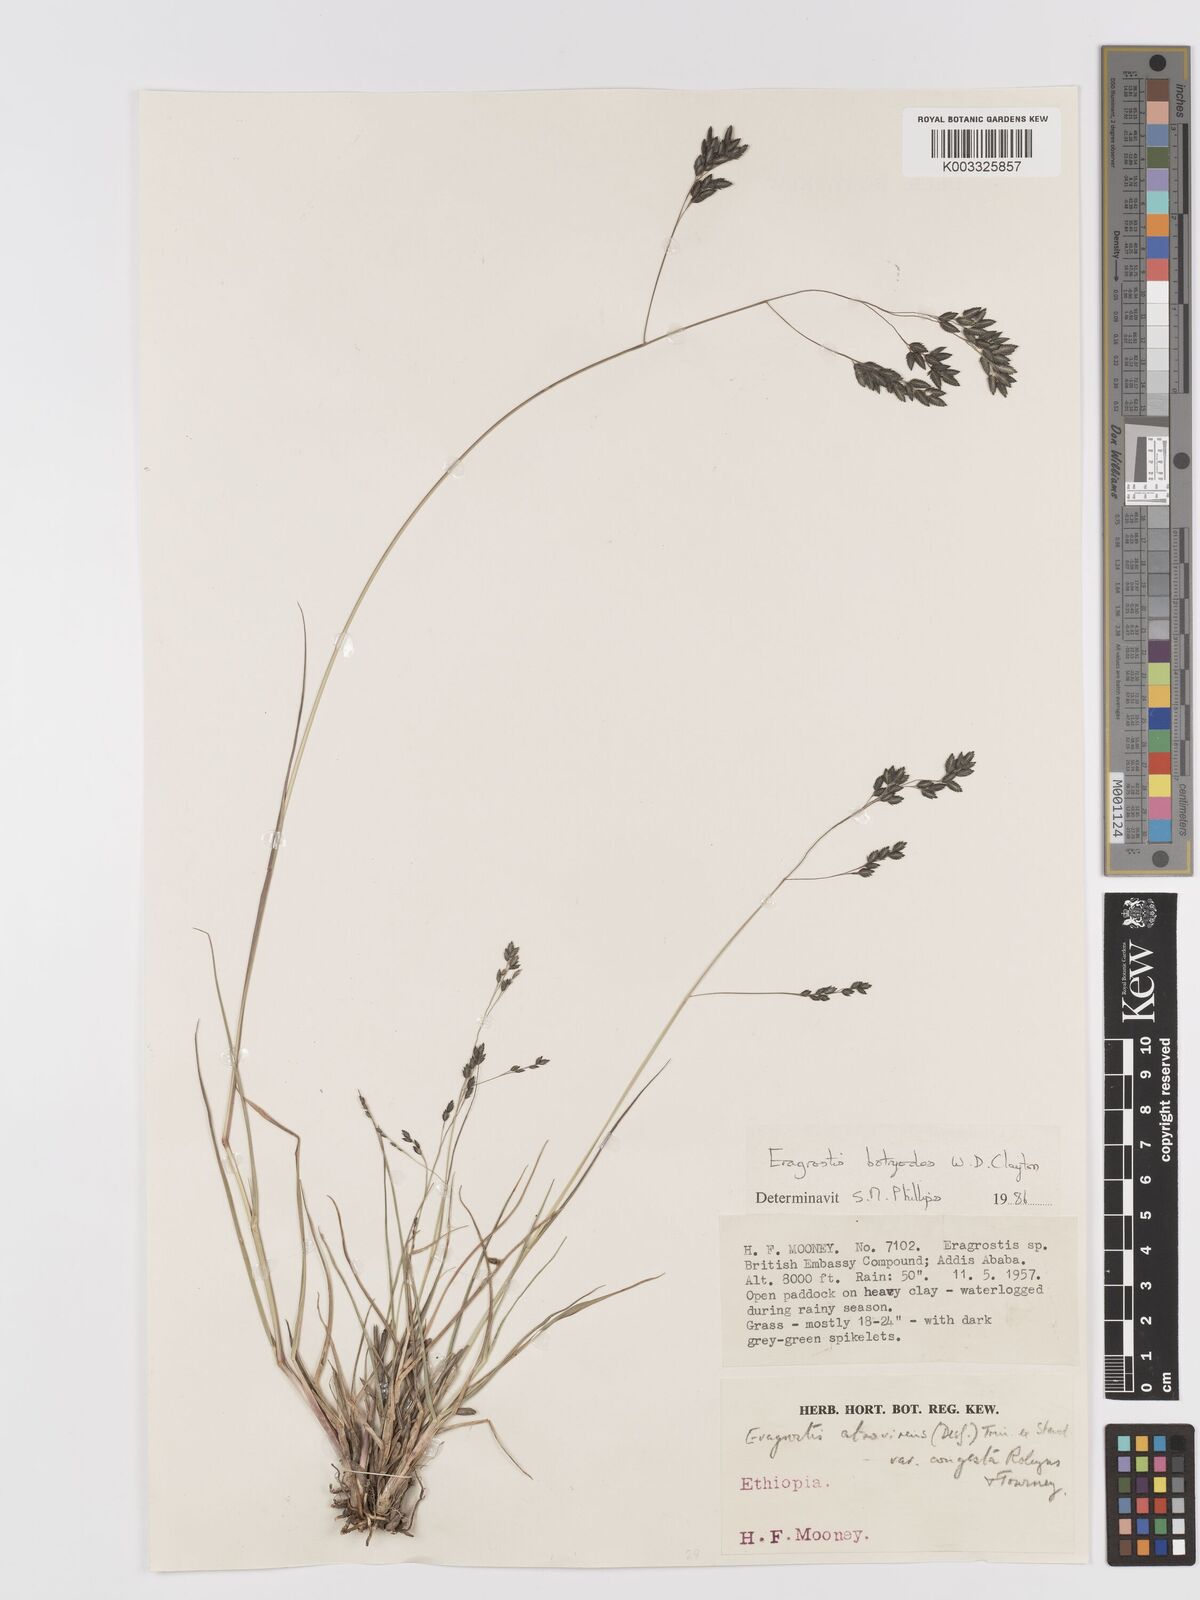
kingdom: Plantae
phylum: Tracheophyta
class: Liliopsida
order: Poales
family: Poaceae
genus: Eragrostis
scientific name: Eragrostis botryodes
